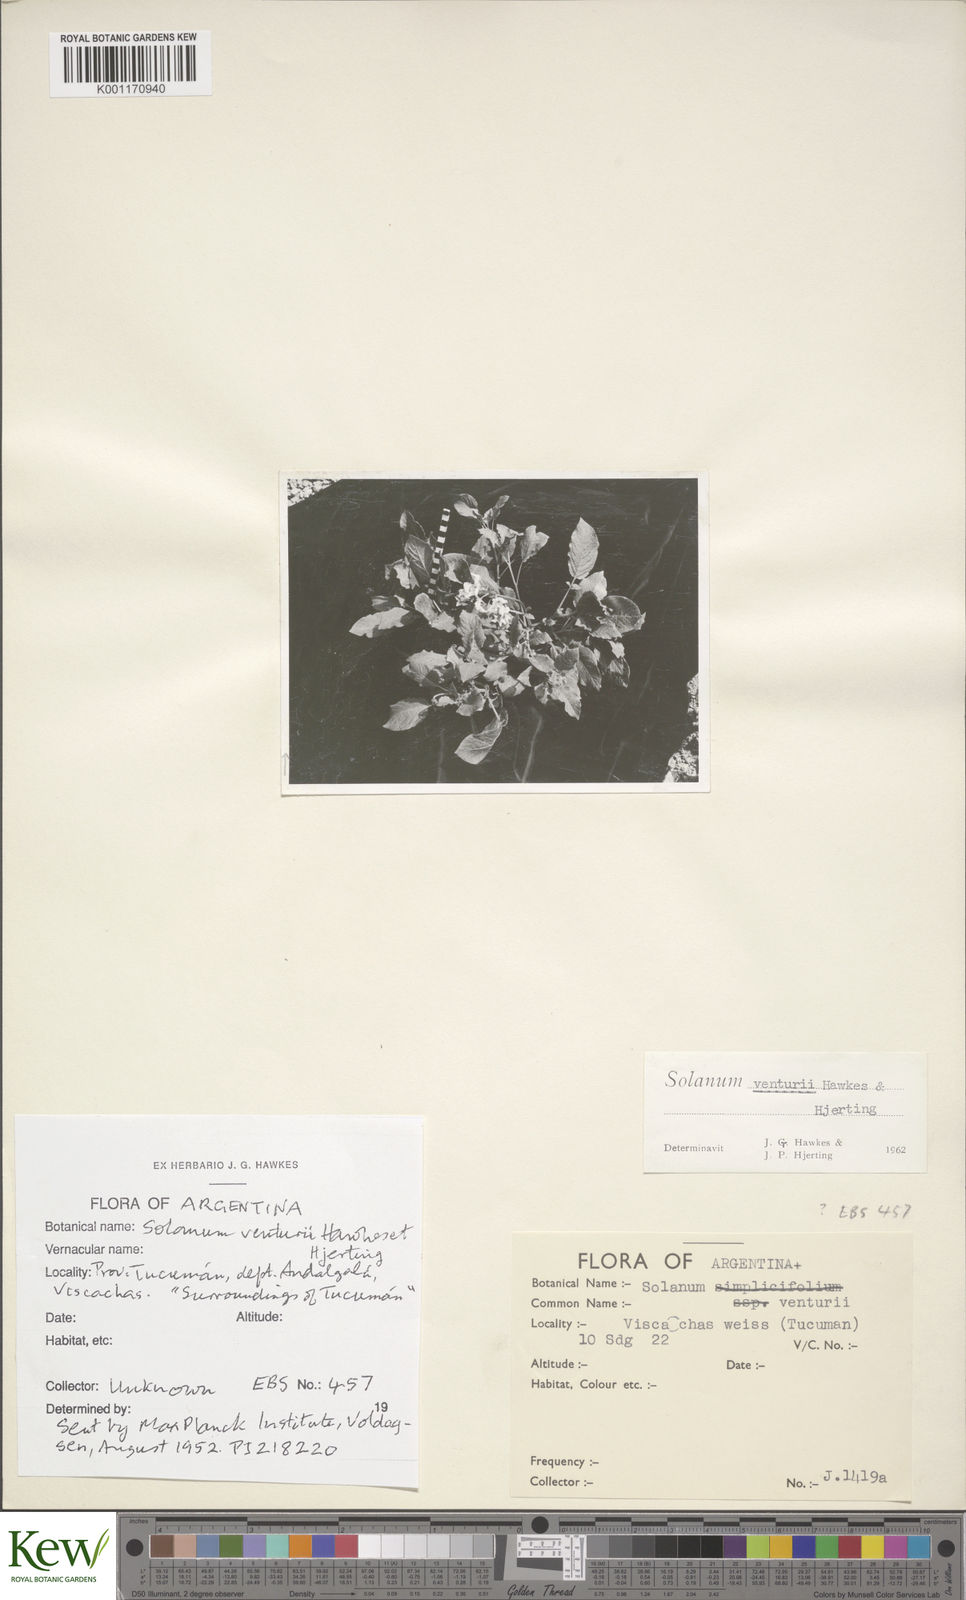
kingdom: Plantae
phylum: Tracheophyta
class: Magnoliopsida
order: Solanales
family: Solanaceae
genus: Solanum
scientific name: Solanum venturii
